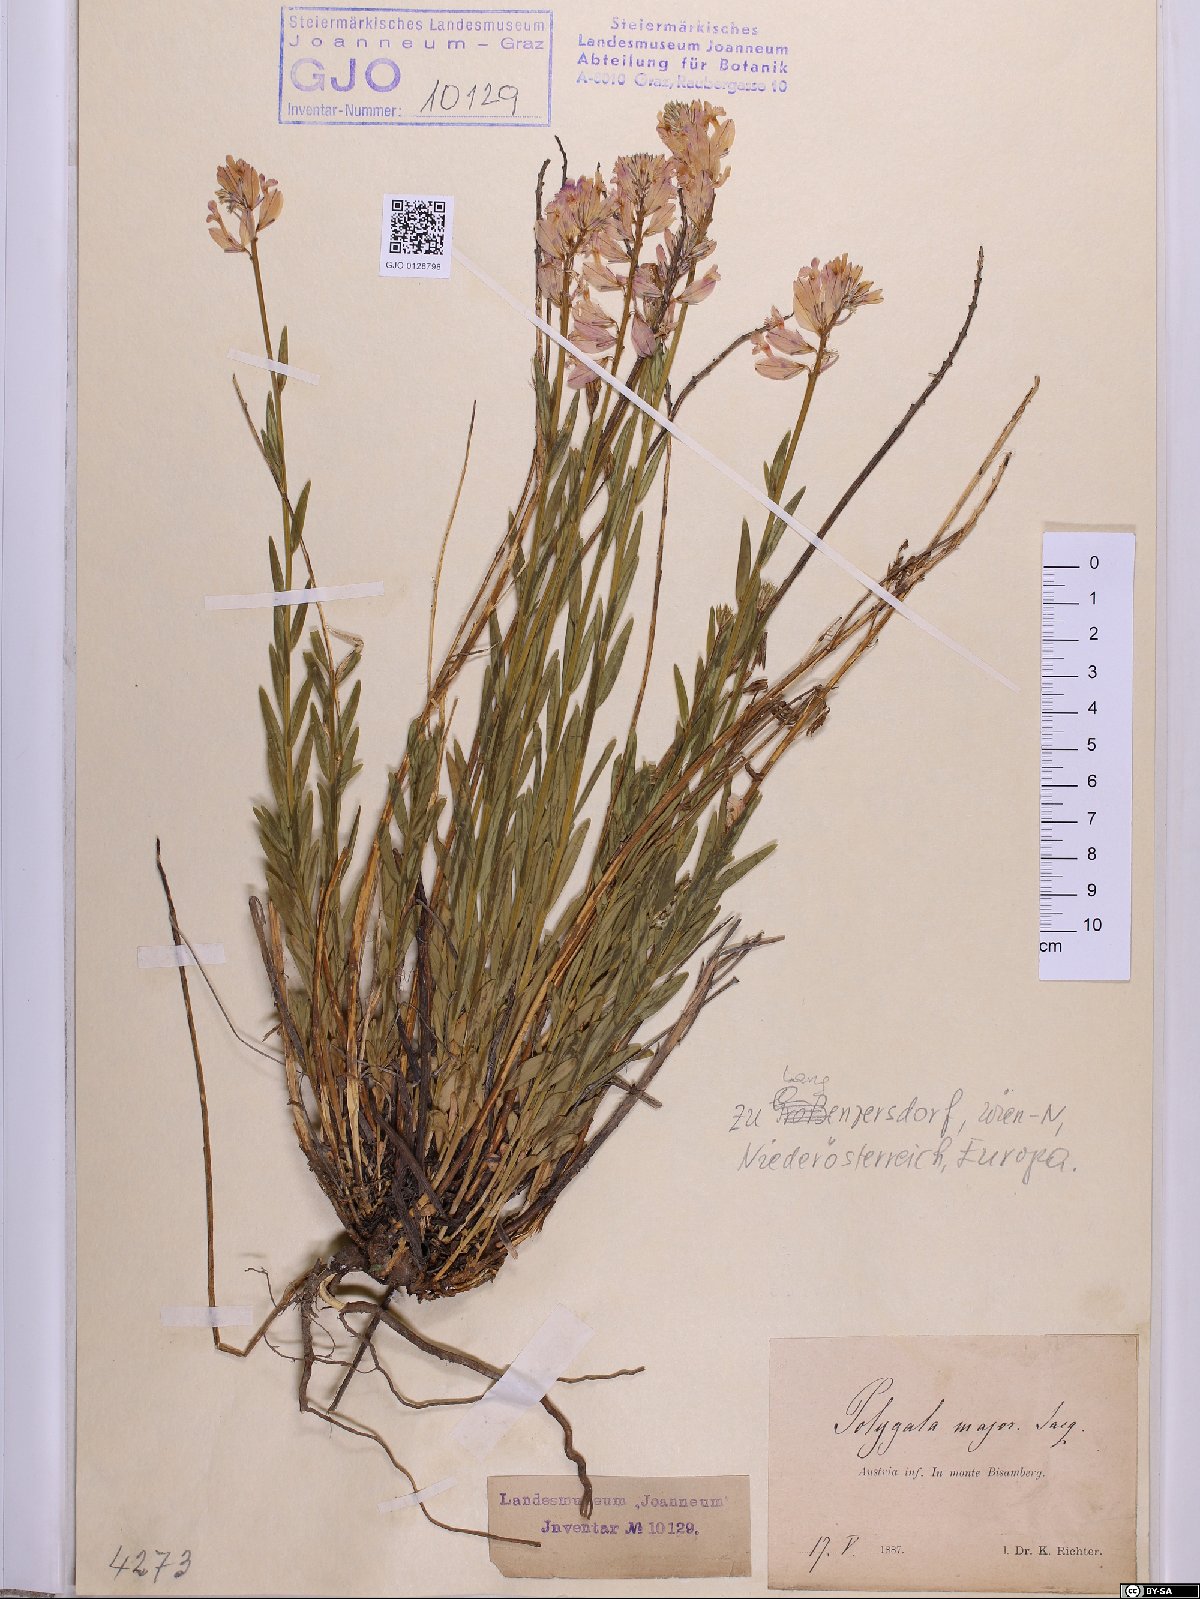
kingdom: Plantae
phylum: Tracheophyta
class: Magnoliopsida
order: Fabales
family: Polygalaceae
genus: Polygala
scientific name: Polygala major
